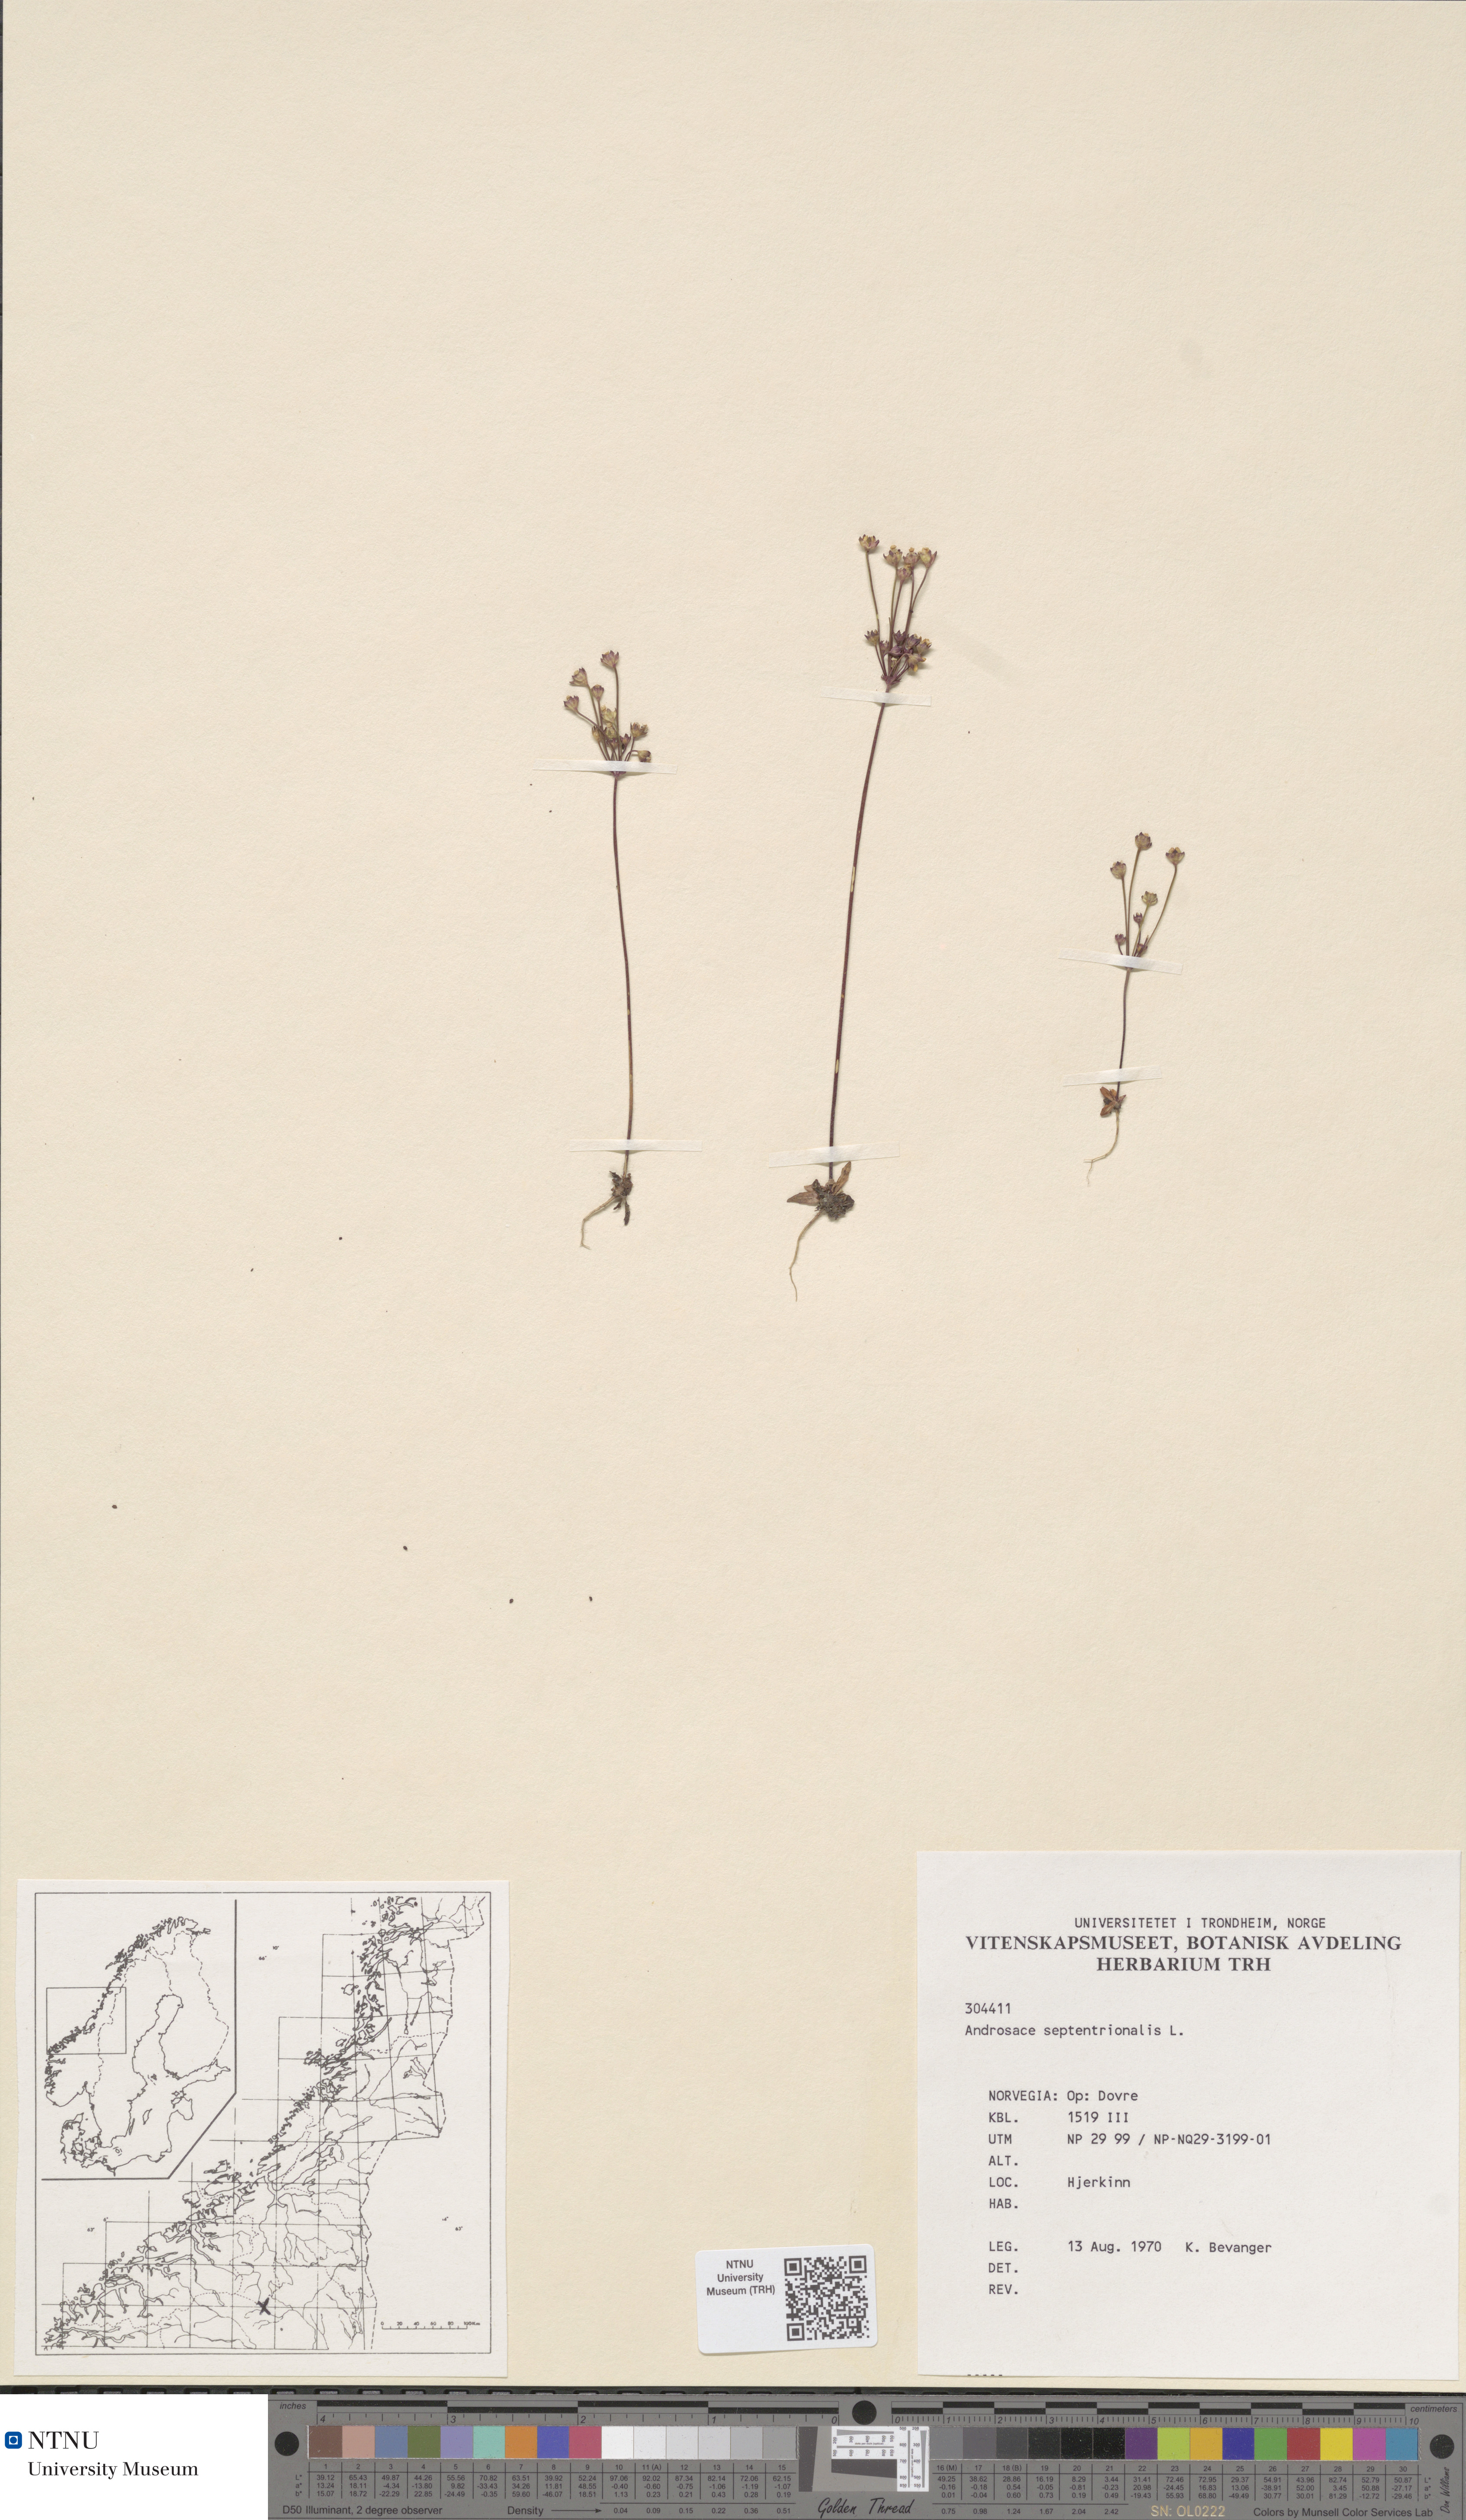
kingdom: Plantae
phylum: Tracheophyta
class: Magnoliopsida
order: Ericales
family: Primulaceae
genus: Androsace
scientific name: Androsace septentrionalis
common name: Hairy northern fairy-candelabra
